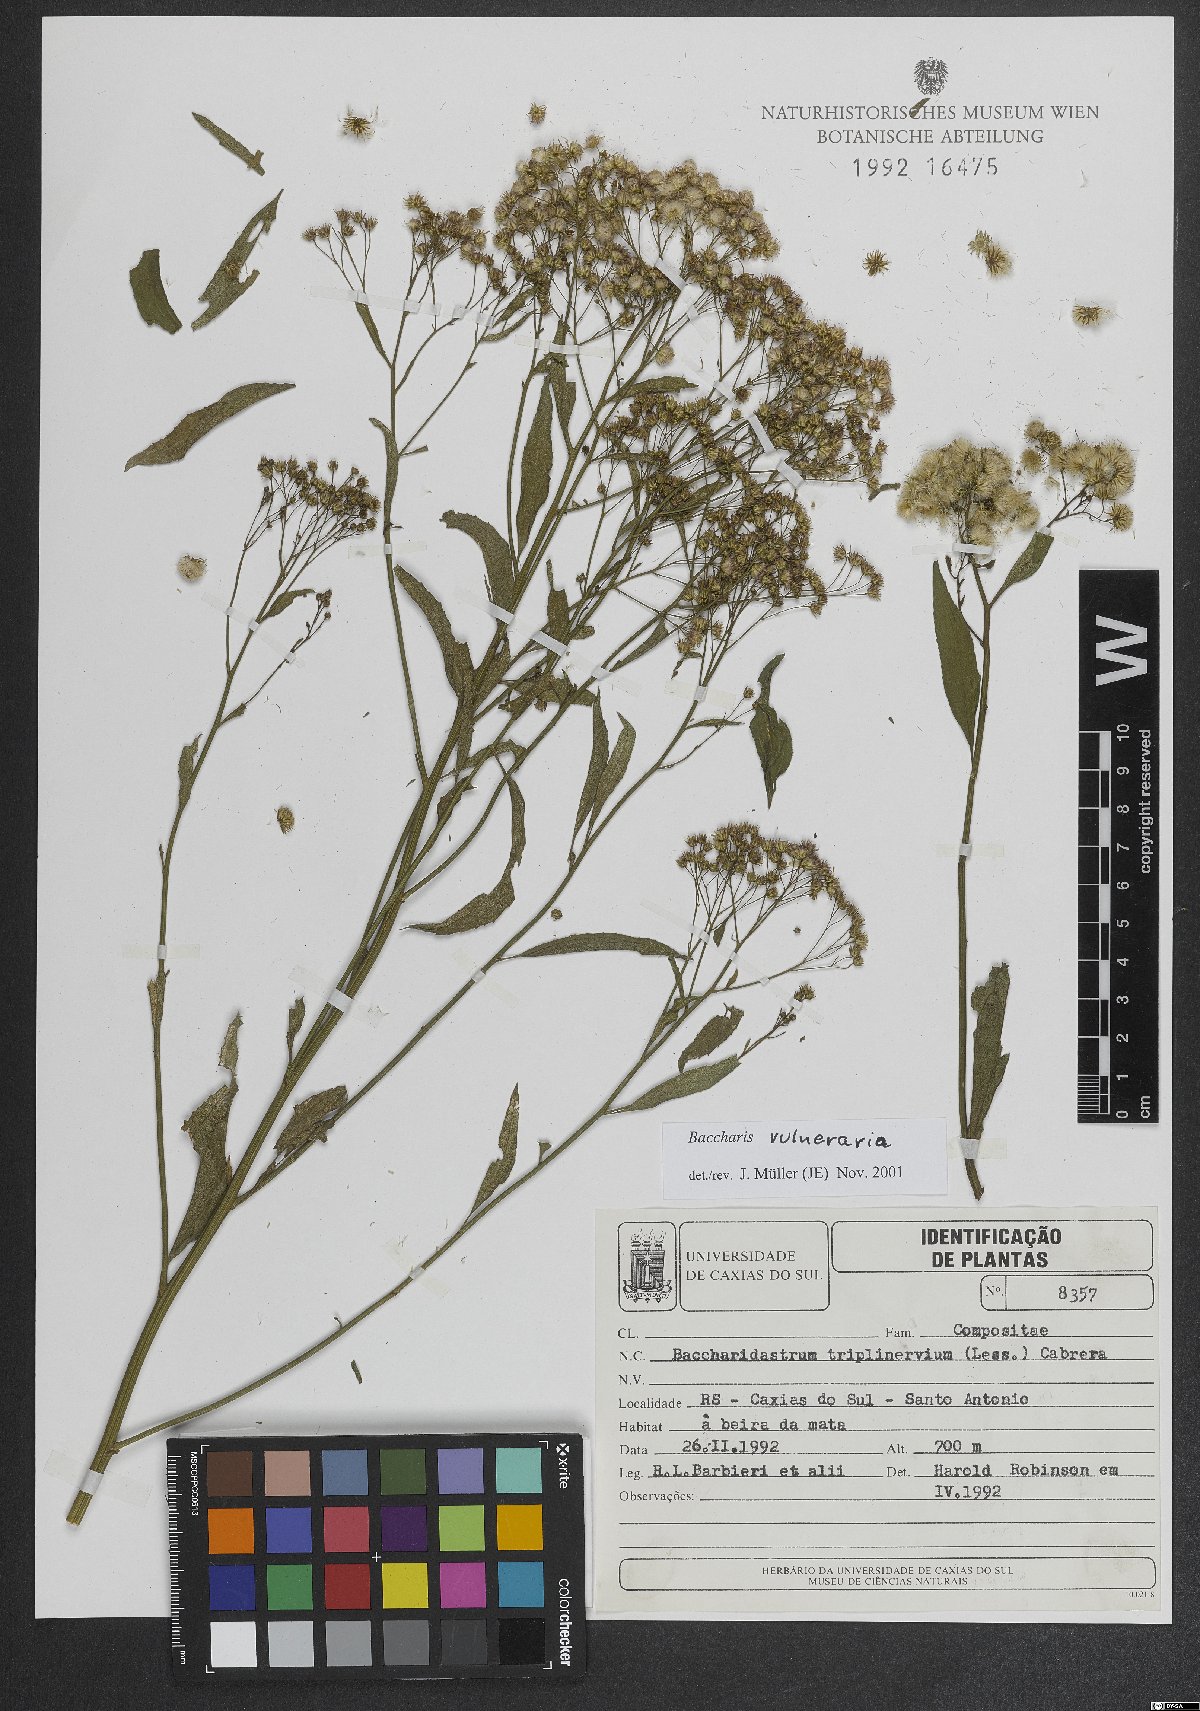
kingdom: Plantae
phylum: Tracheophyta
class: Magnoliopsida
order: Asterales
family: Asteraceae
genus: Archibaccharis
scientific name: Archibaccharis vulneraria
